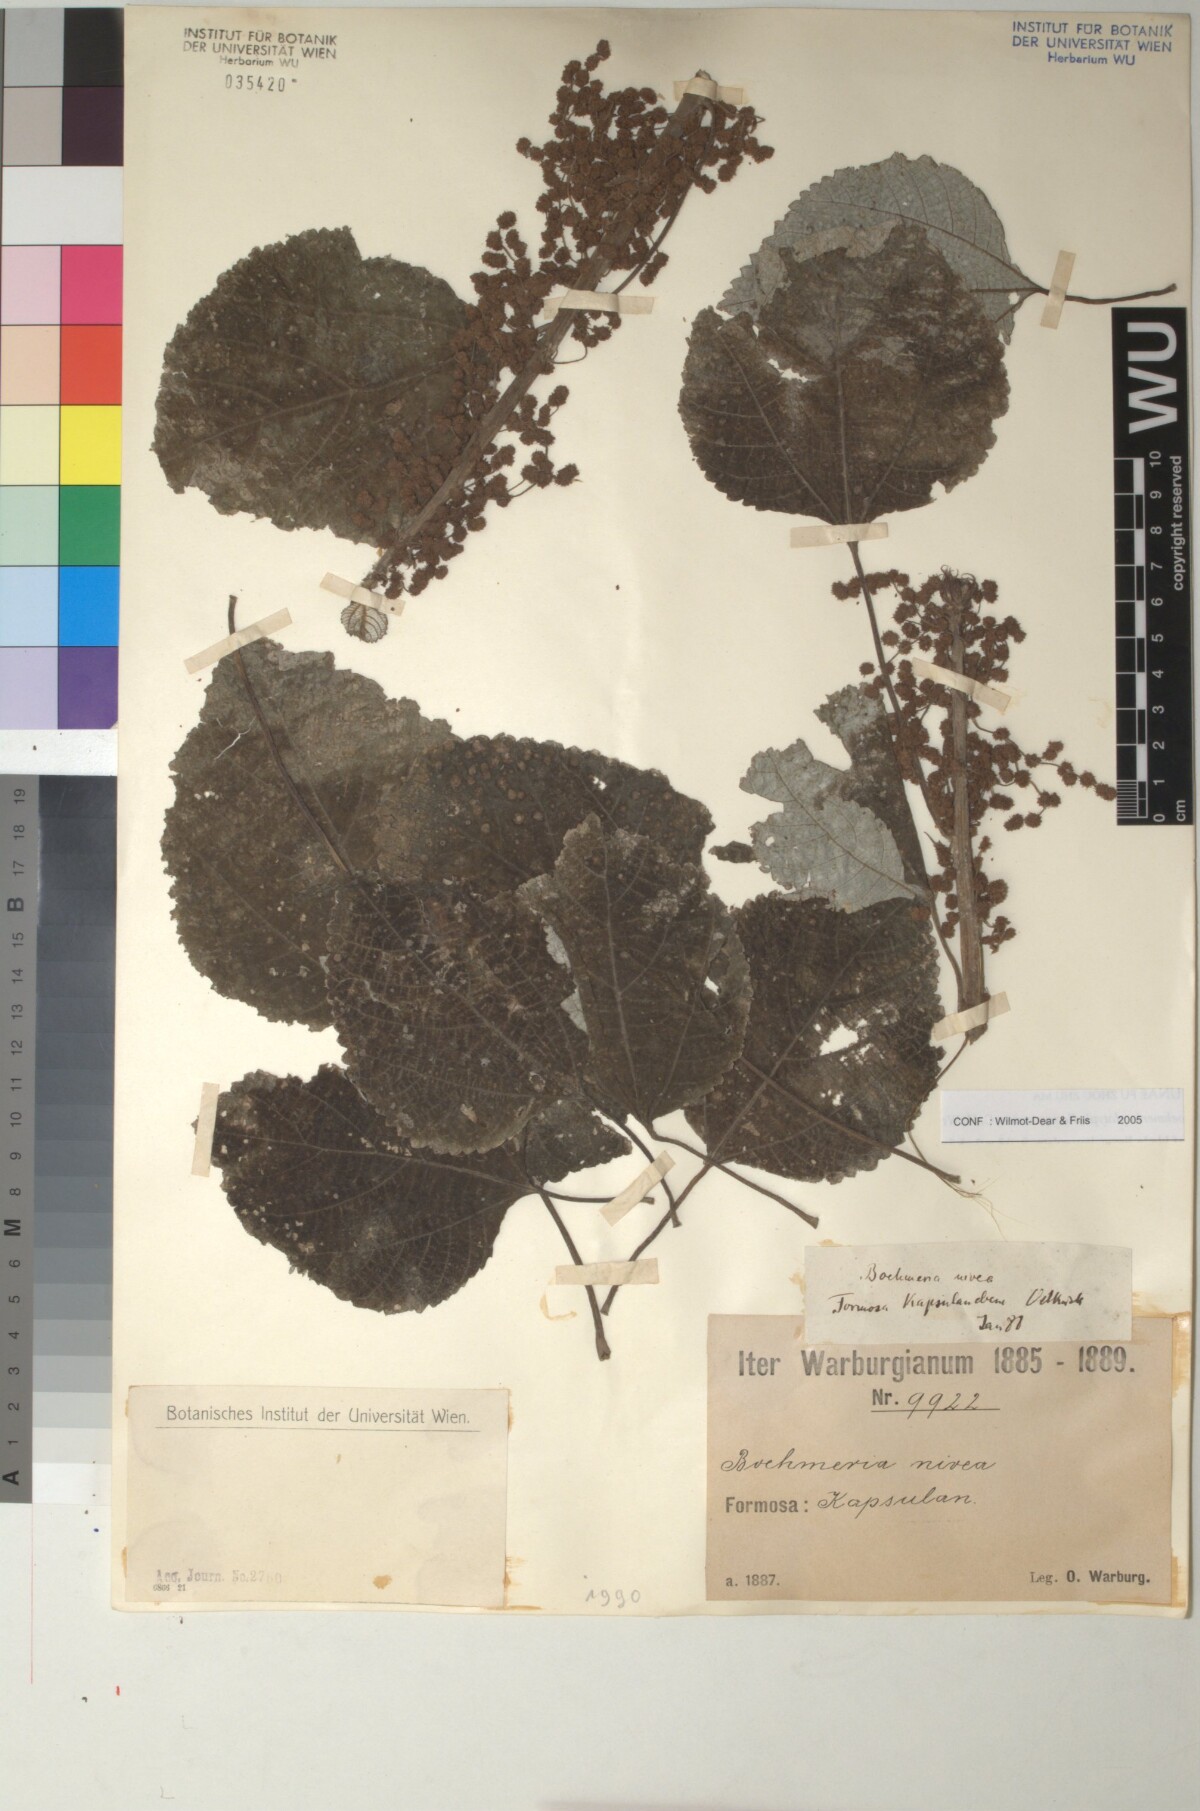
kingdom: Plantae
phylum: Tracheophyta
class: Magnoliopsida
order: Rosales
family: Urticaceae
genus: Boehmeria
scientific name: Boehmeria nivea
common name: Ramie chinese grass
